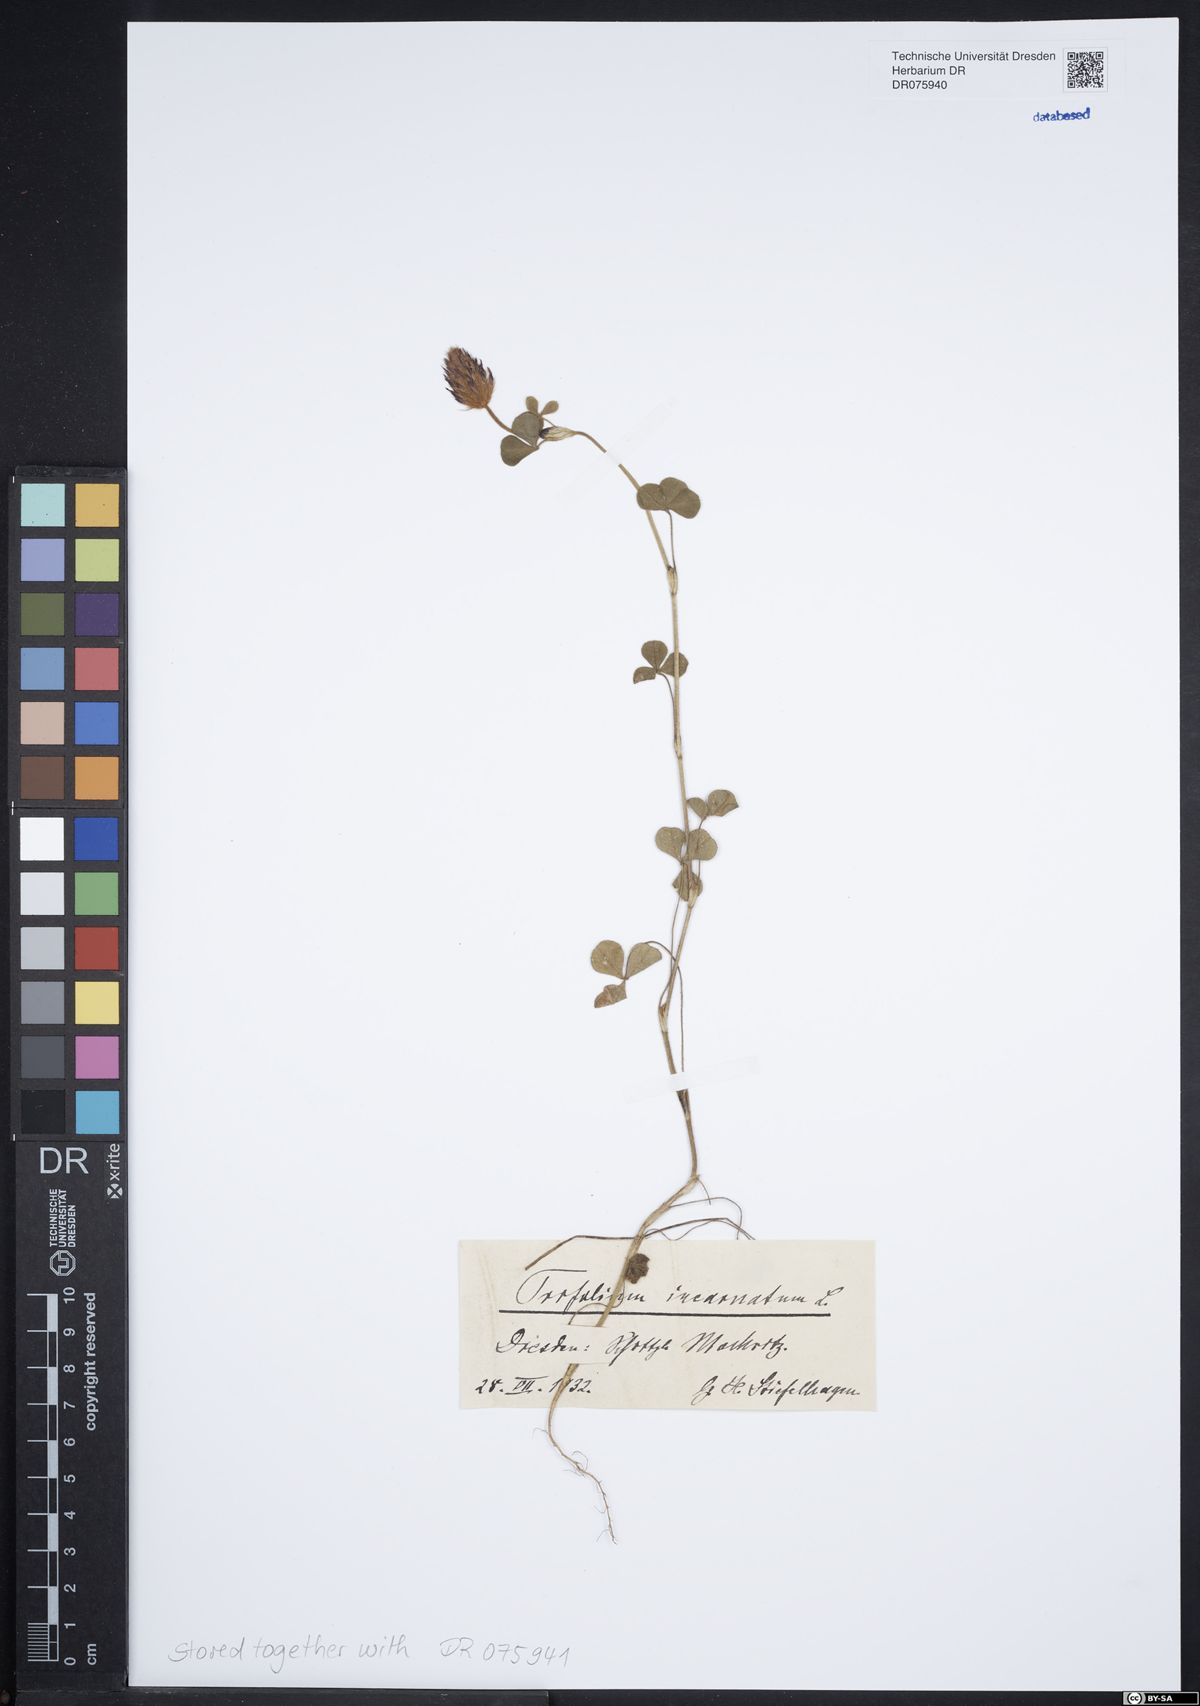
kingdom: Plantae
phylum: Tracheophyta
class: Magnoliopsida
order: Fabales
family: Fabaceae
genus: Trifolium
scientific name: Trifolium incarnatum
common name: Crimson clover
